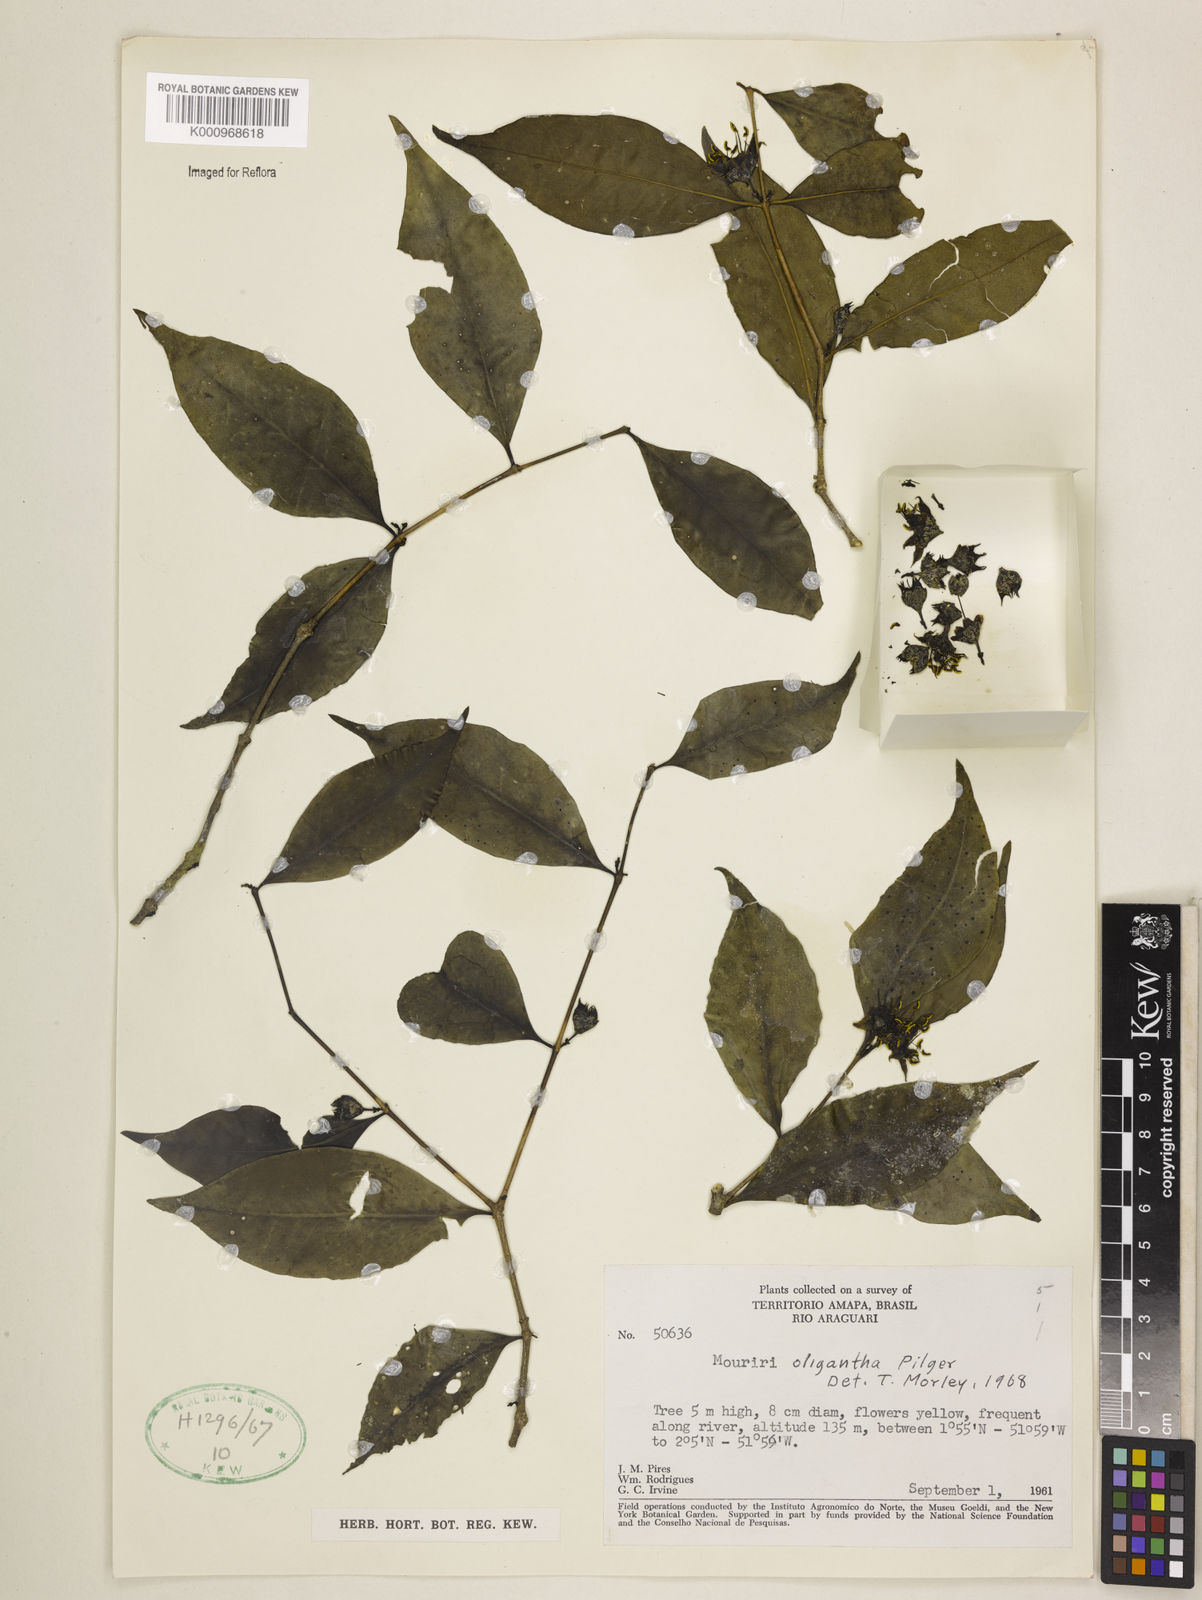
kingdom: Plantae
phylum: Tracheophyta
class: Magnoliopsida
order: Myrtales
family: Melastomataceae
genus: Mouriri
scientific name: Mouriri oligantha
